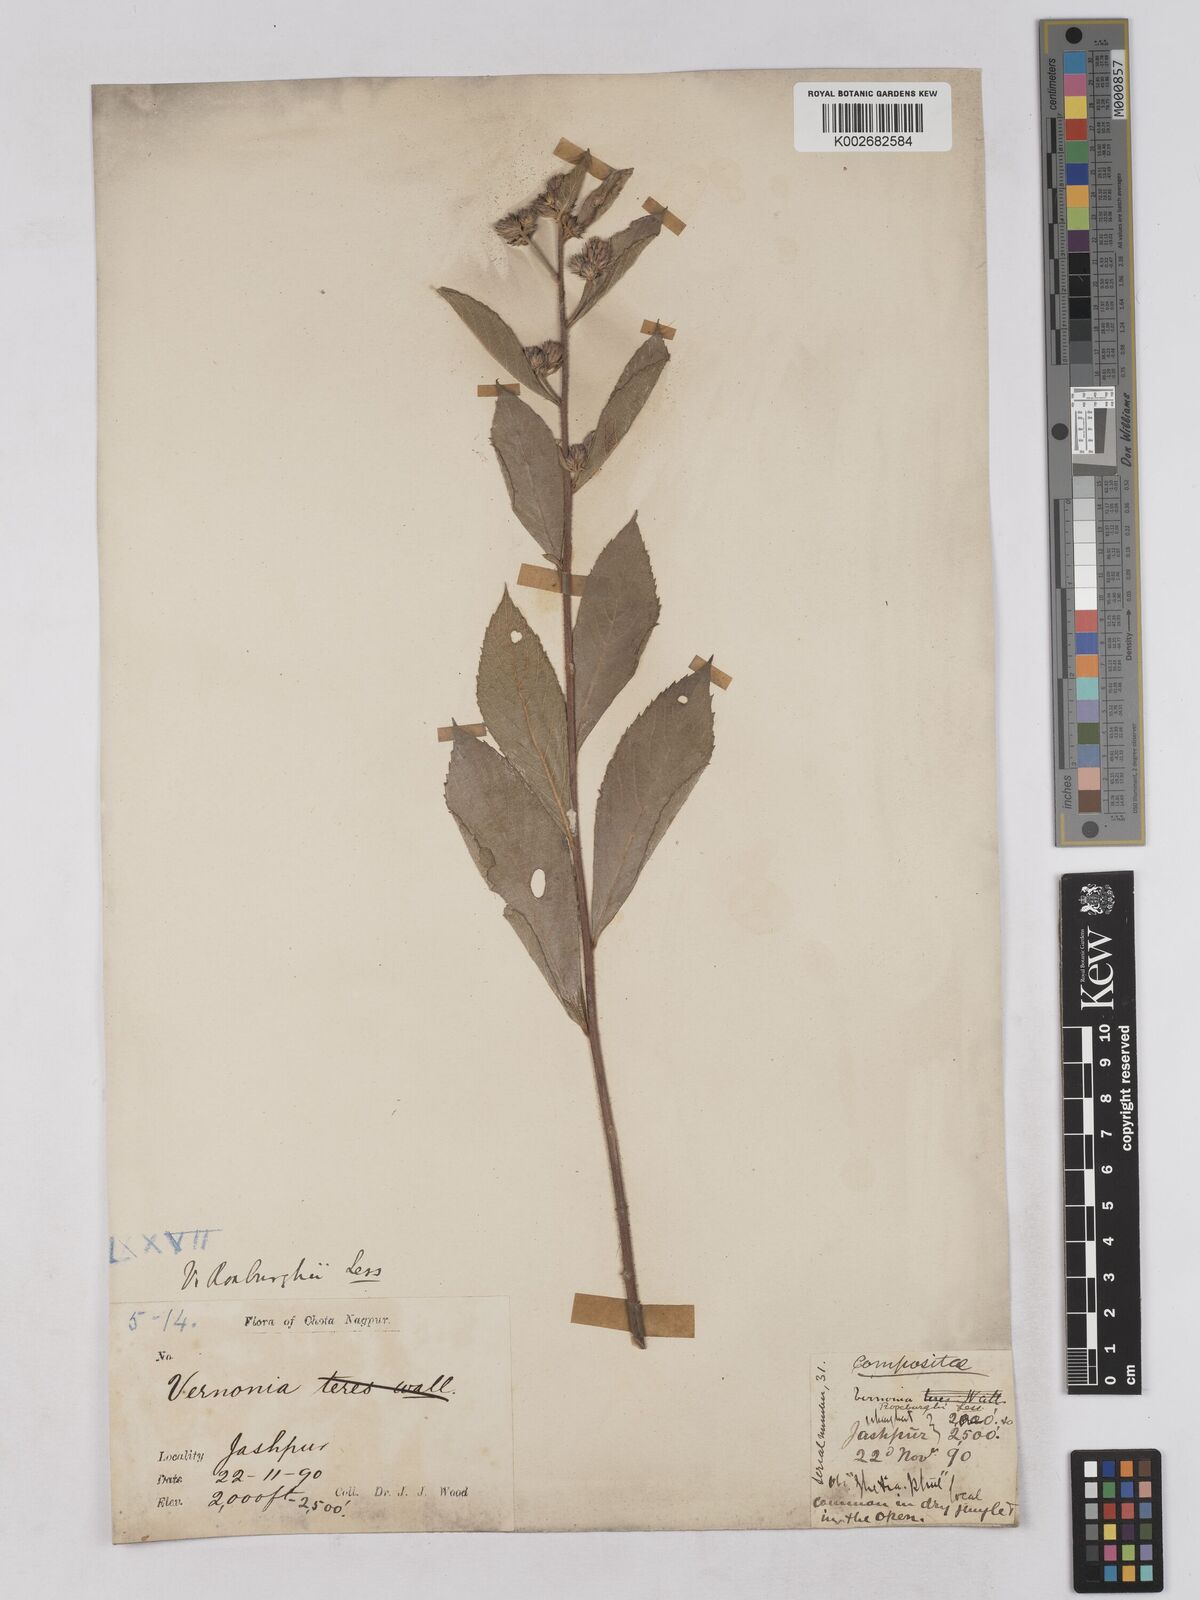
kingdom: Plantae
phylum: Tracheophyta
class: Magnoliopsida
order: Asterales
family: Asteraceae
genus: Acilepis
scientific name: Acilepis aspera
